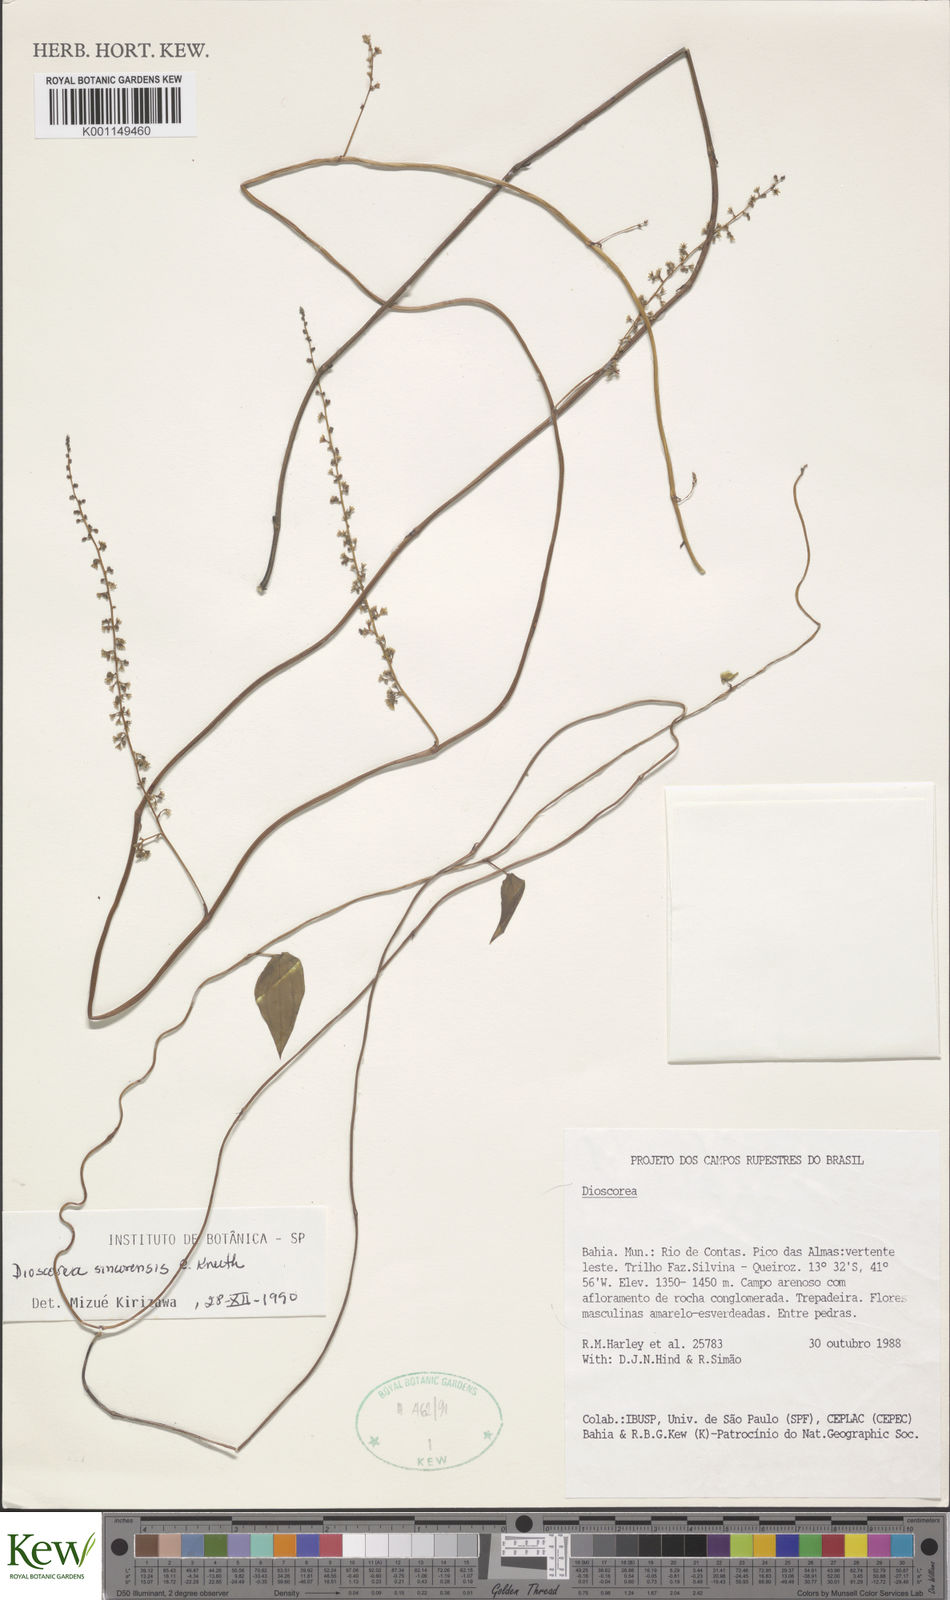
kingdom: Plantae
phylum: Tracheophyta
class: Liliopsida
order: Dioscoreales
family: Dioscoreaceae
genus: Dioscorea
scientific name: Dioscorea sincorensis
